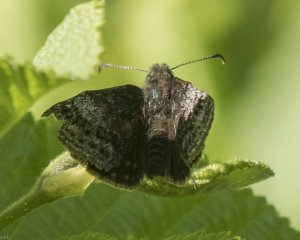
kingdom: Animalia
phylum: Arthropoda
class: Insecta
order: Lepidoptera
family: Hesperiidae
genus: Erynnis
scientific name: Erynnis icelus
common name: Dreamy Duskywing
